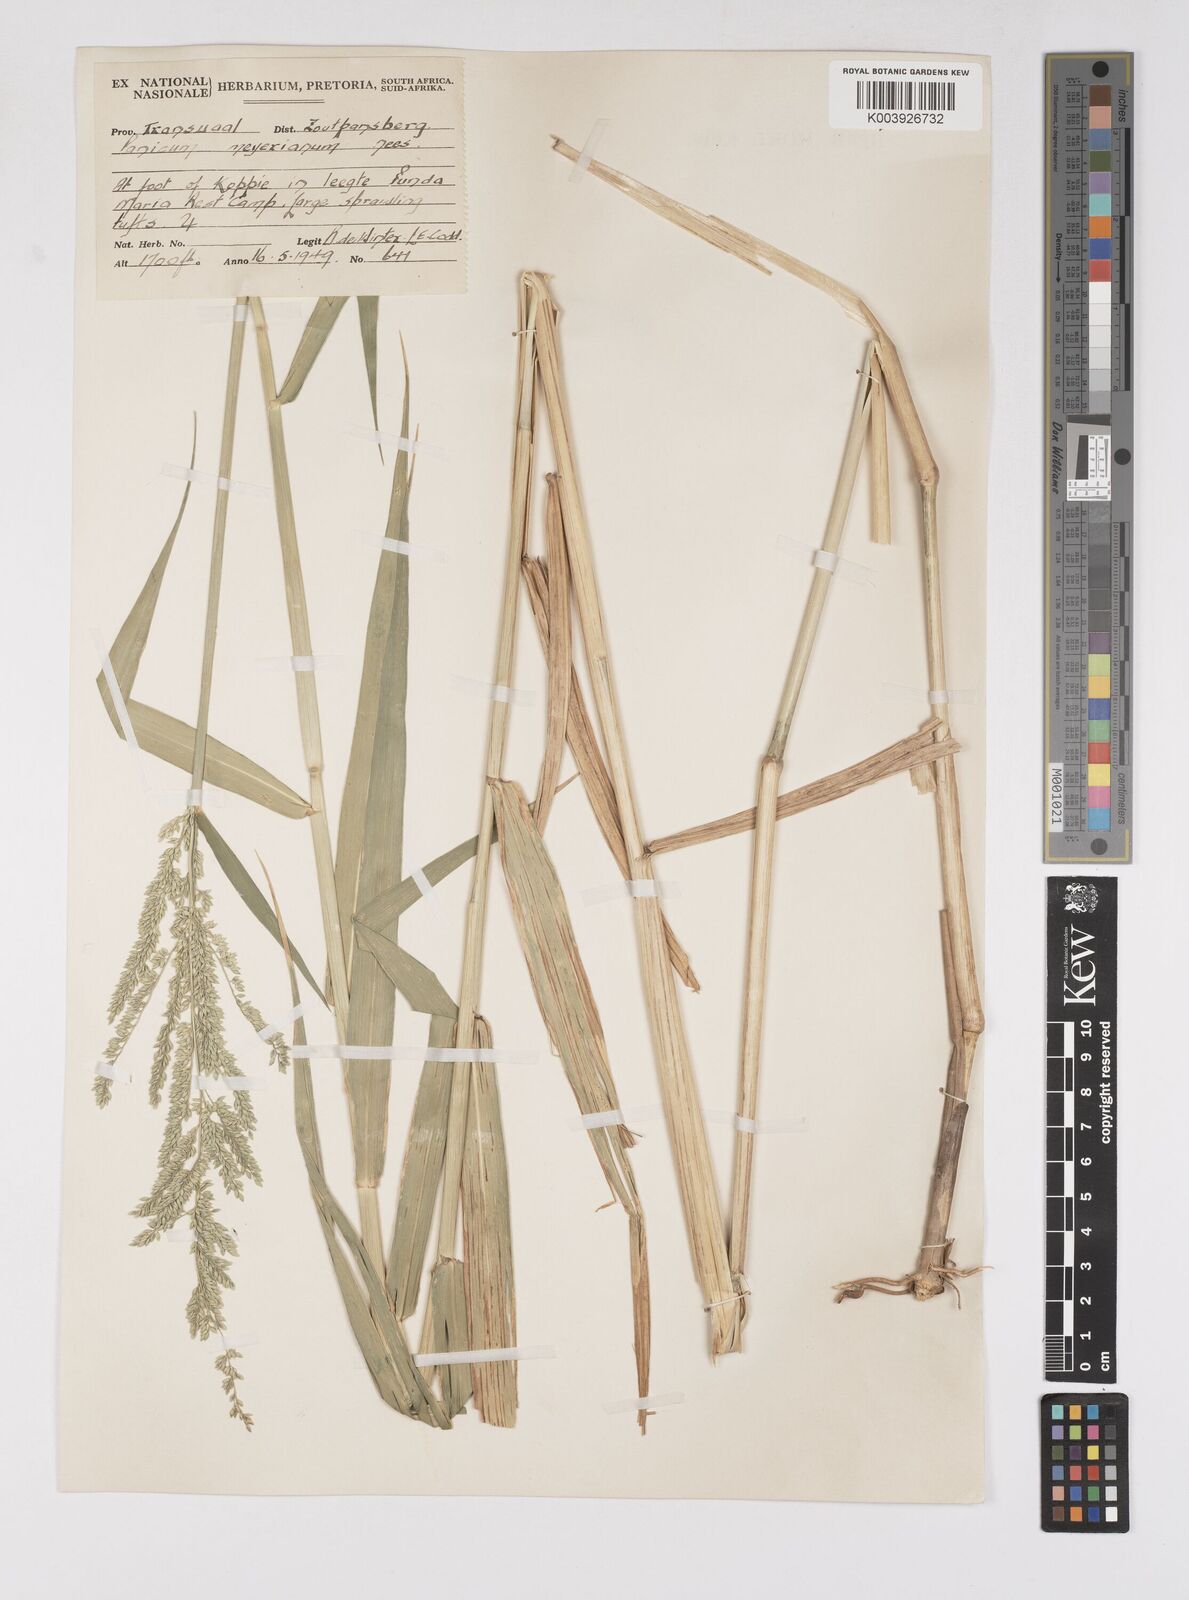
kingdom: Plantae
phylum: Tracheophyta
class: Liliopsida
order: Poales
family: Poaceae
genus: Eriochloa
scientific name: Eriochloa meyeriana
